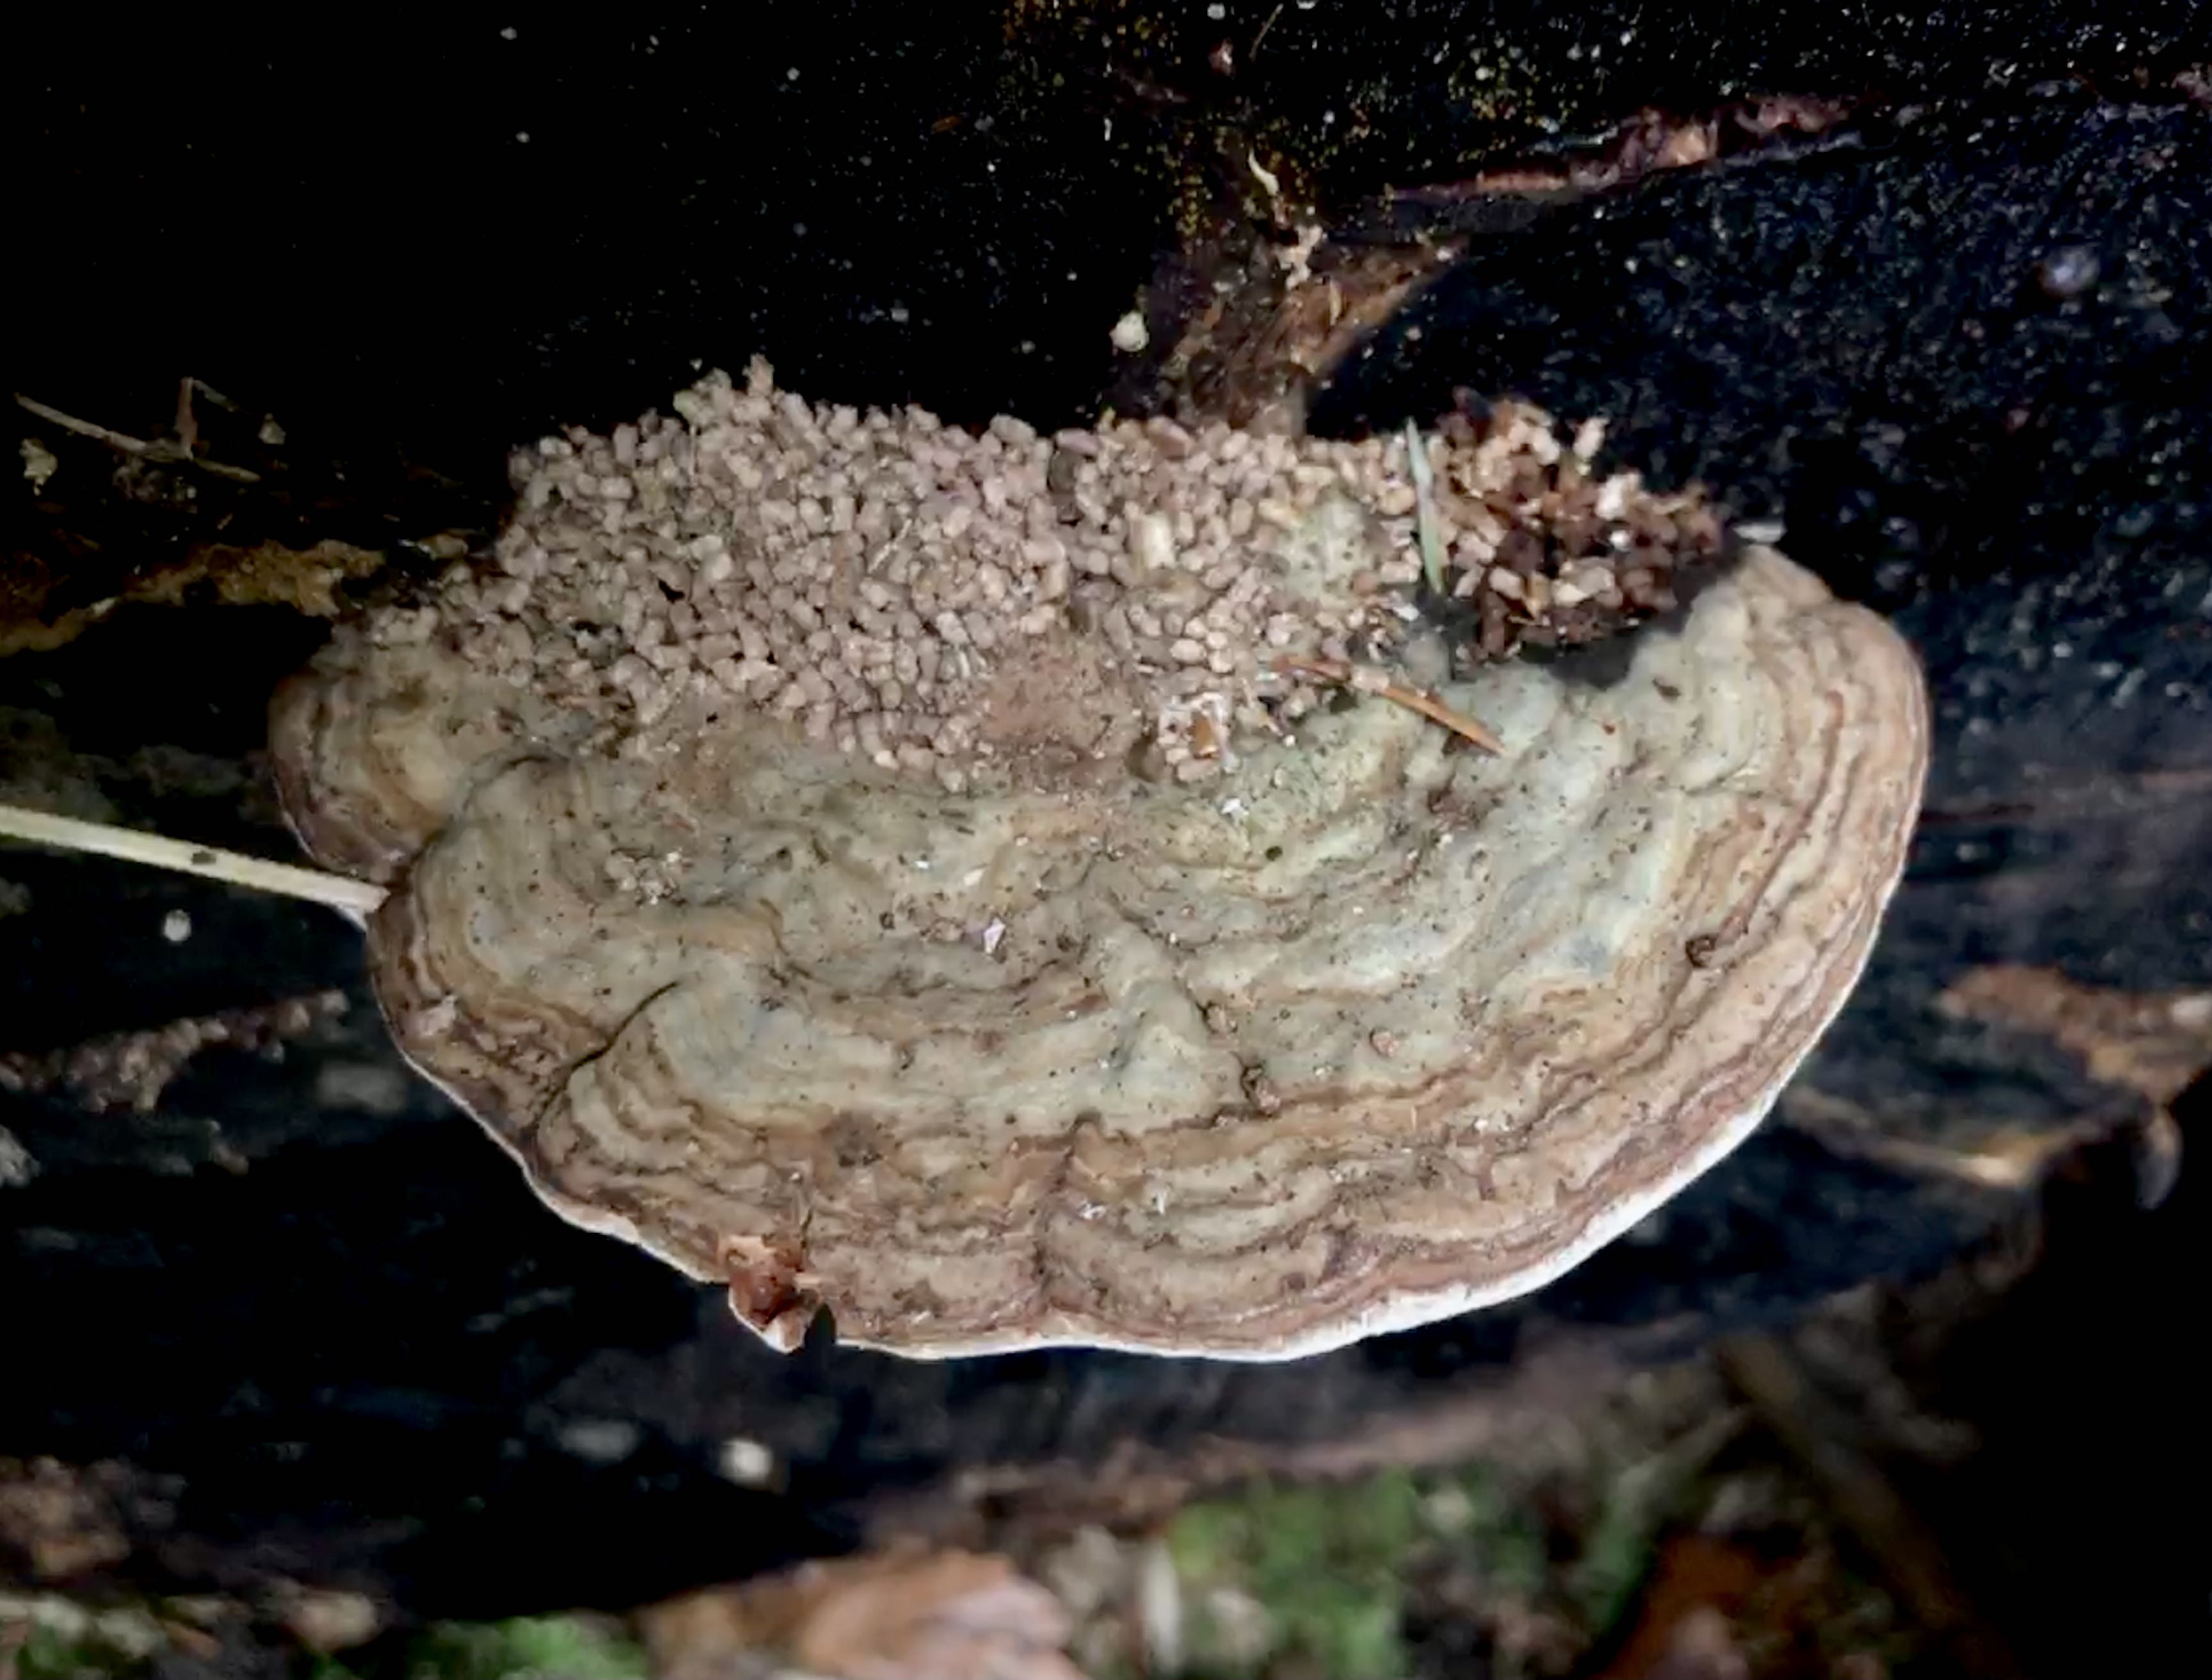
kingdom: Fungi
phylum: Basidiomycota
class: Agaricomycetes
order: Polyporales
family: Polyporaceae
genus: Ganoderma
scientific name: Ganoderma applanatum
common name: flad lakporesvamp
